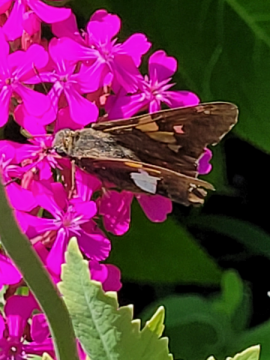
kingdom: Animalia
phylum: Arthropoda
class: Insecta
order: Lepidoptera
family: Hesperiidae
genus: Epargyreus
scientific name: Epargyreus clarus
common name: Silver-spotted Skipper
